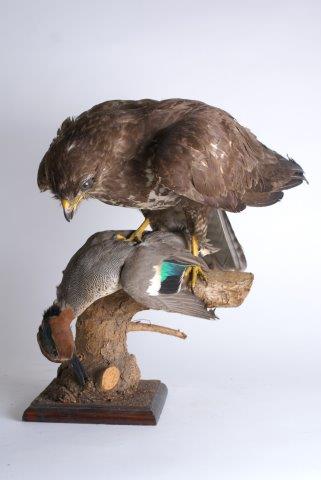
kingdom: Animalia
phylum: Chordata
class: Aves
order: Accipitriformes
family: Accipitridae
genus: Buteo
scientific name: Buteo buteo
